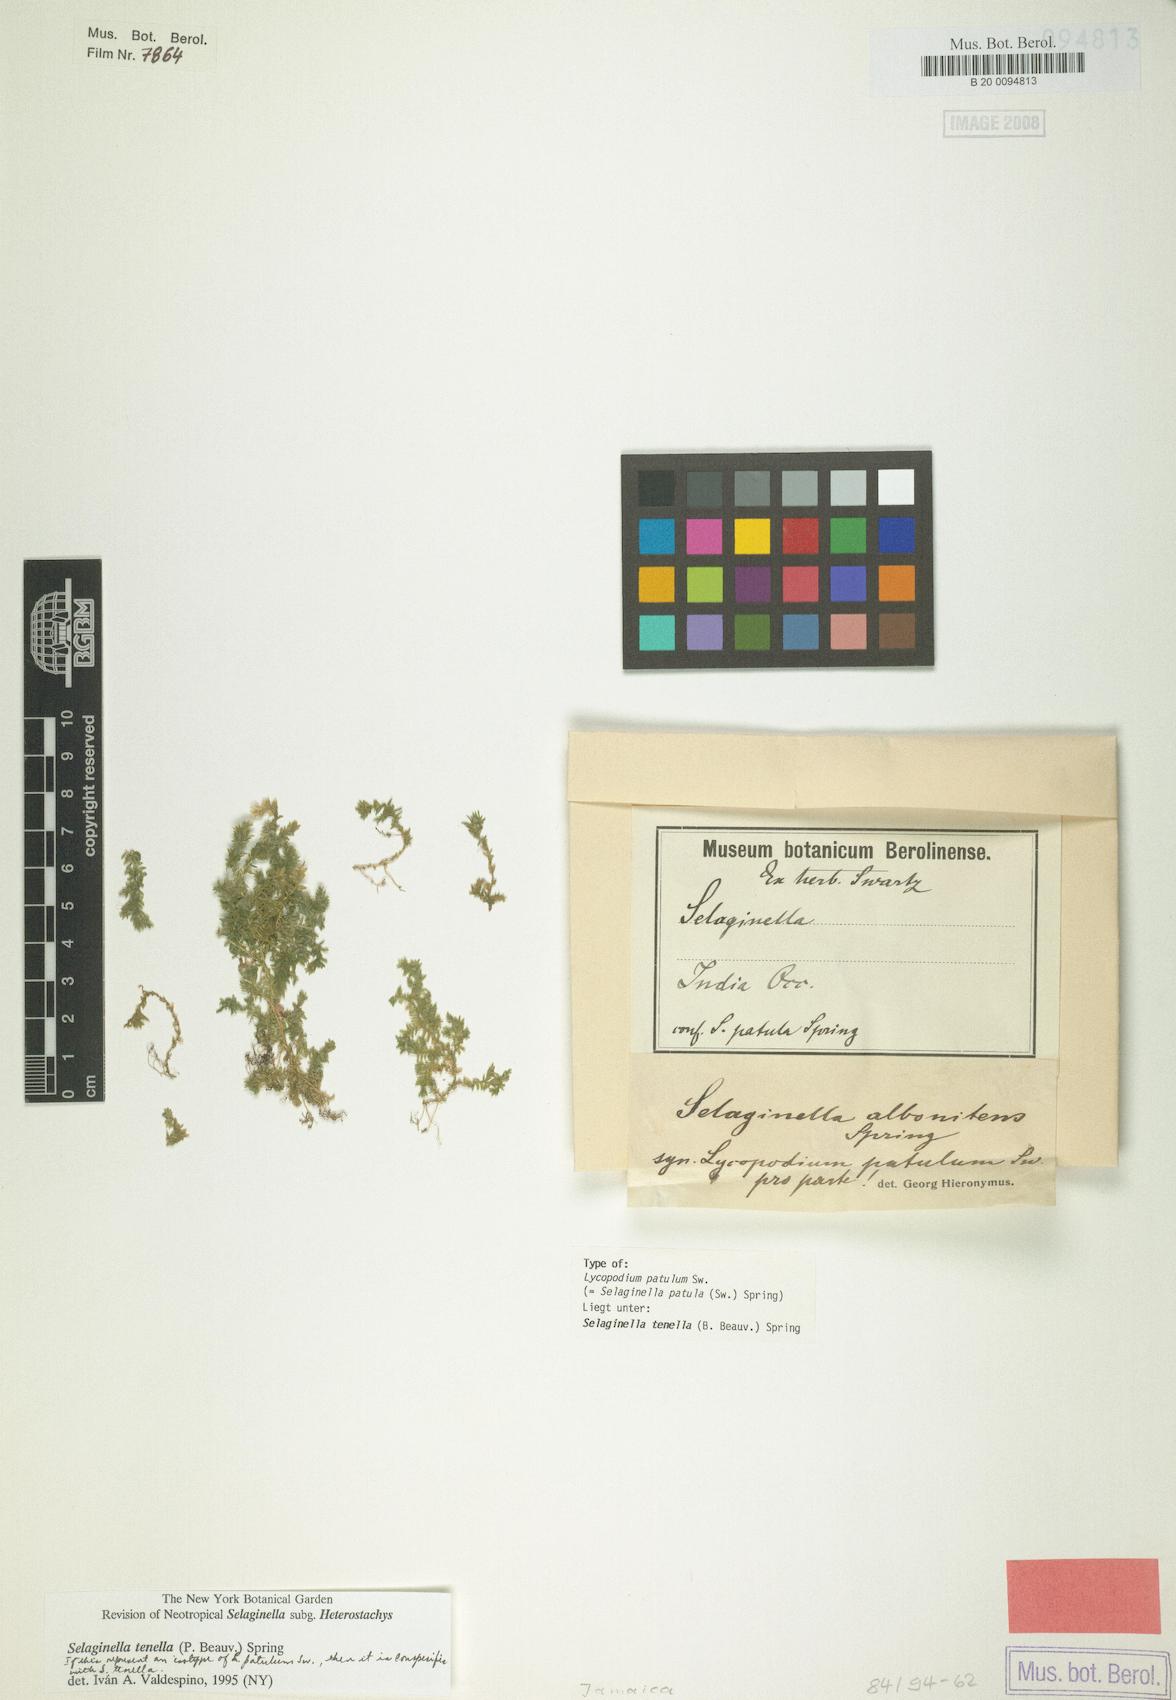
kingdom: Plantae
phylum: Tracheophyta
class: Lycopodiopsida
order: Selaginellales
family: Selaginellaceae
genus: Selaginella
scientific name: Selaginella tenella
